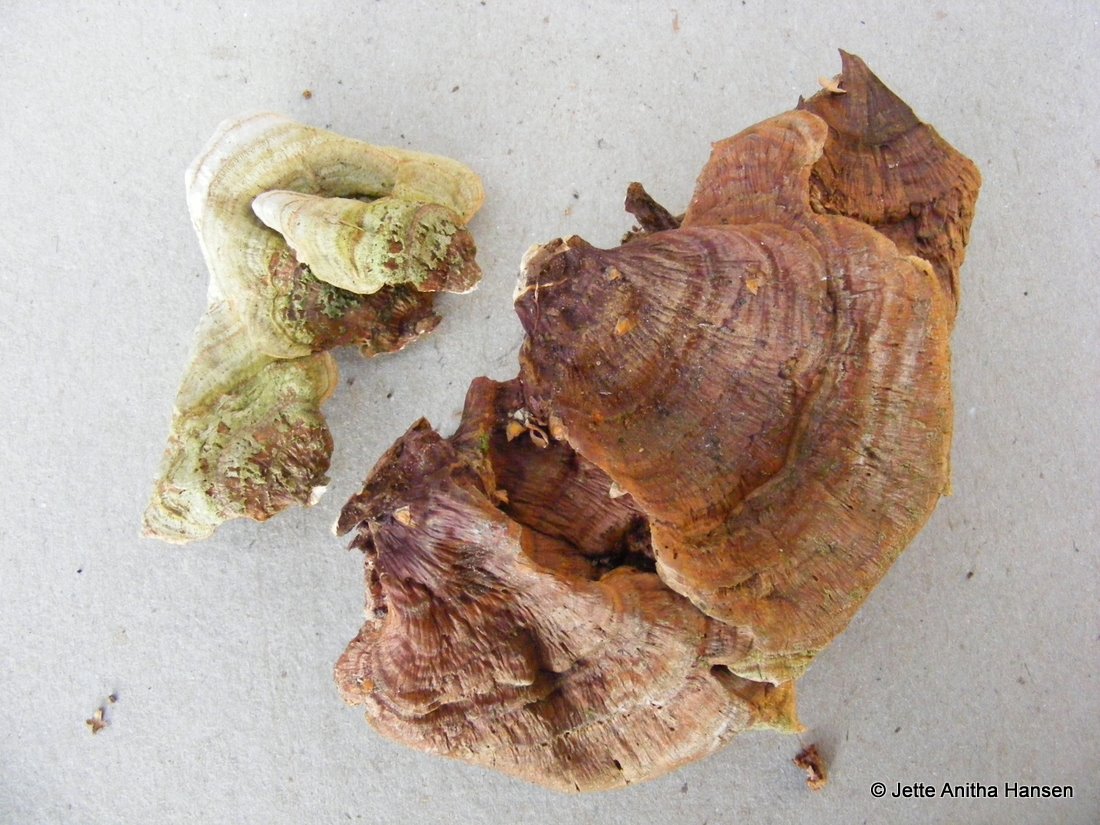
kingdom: Fungi
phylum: Basidiomycota
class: Agaricomycetes
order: Russulales
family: Stereaceae
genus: Stereum
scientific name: Stereum subtomentosum
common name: smuk lædersvamp
